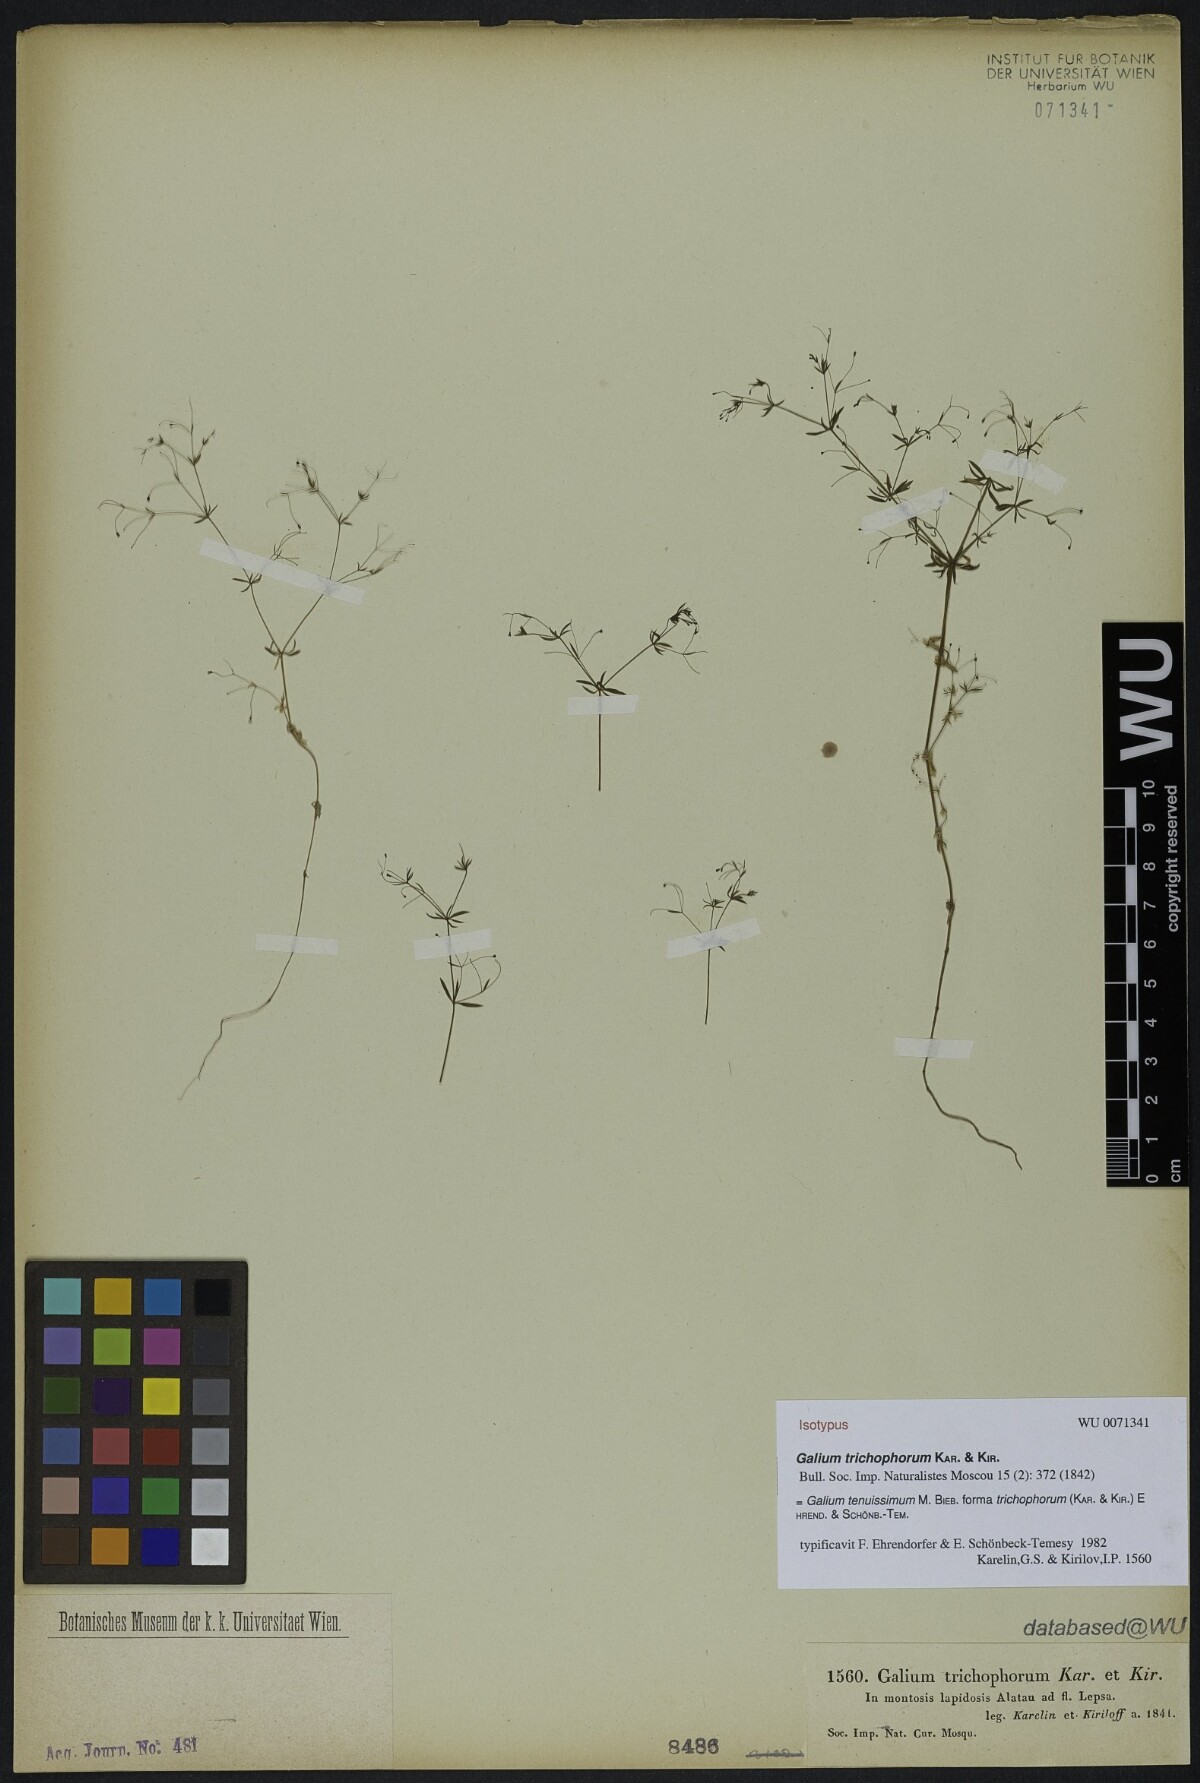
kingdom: Plantae
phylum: Tracheophyta
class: Magnoliopsida
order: Gentianales
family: Rubiaceae
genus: Galium
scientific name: Galium tenuissimum
